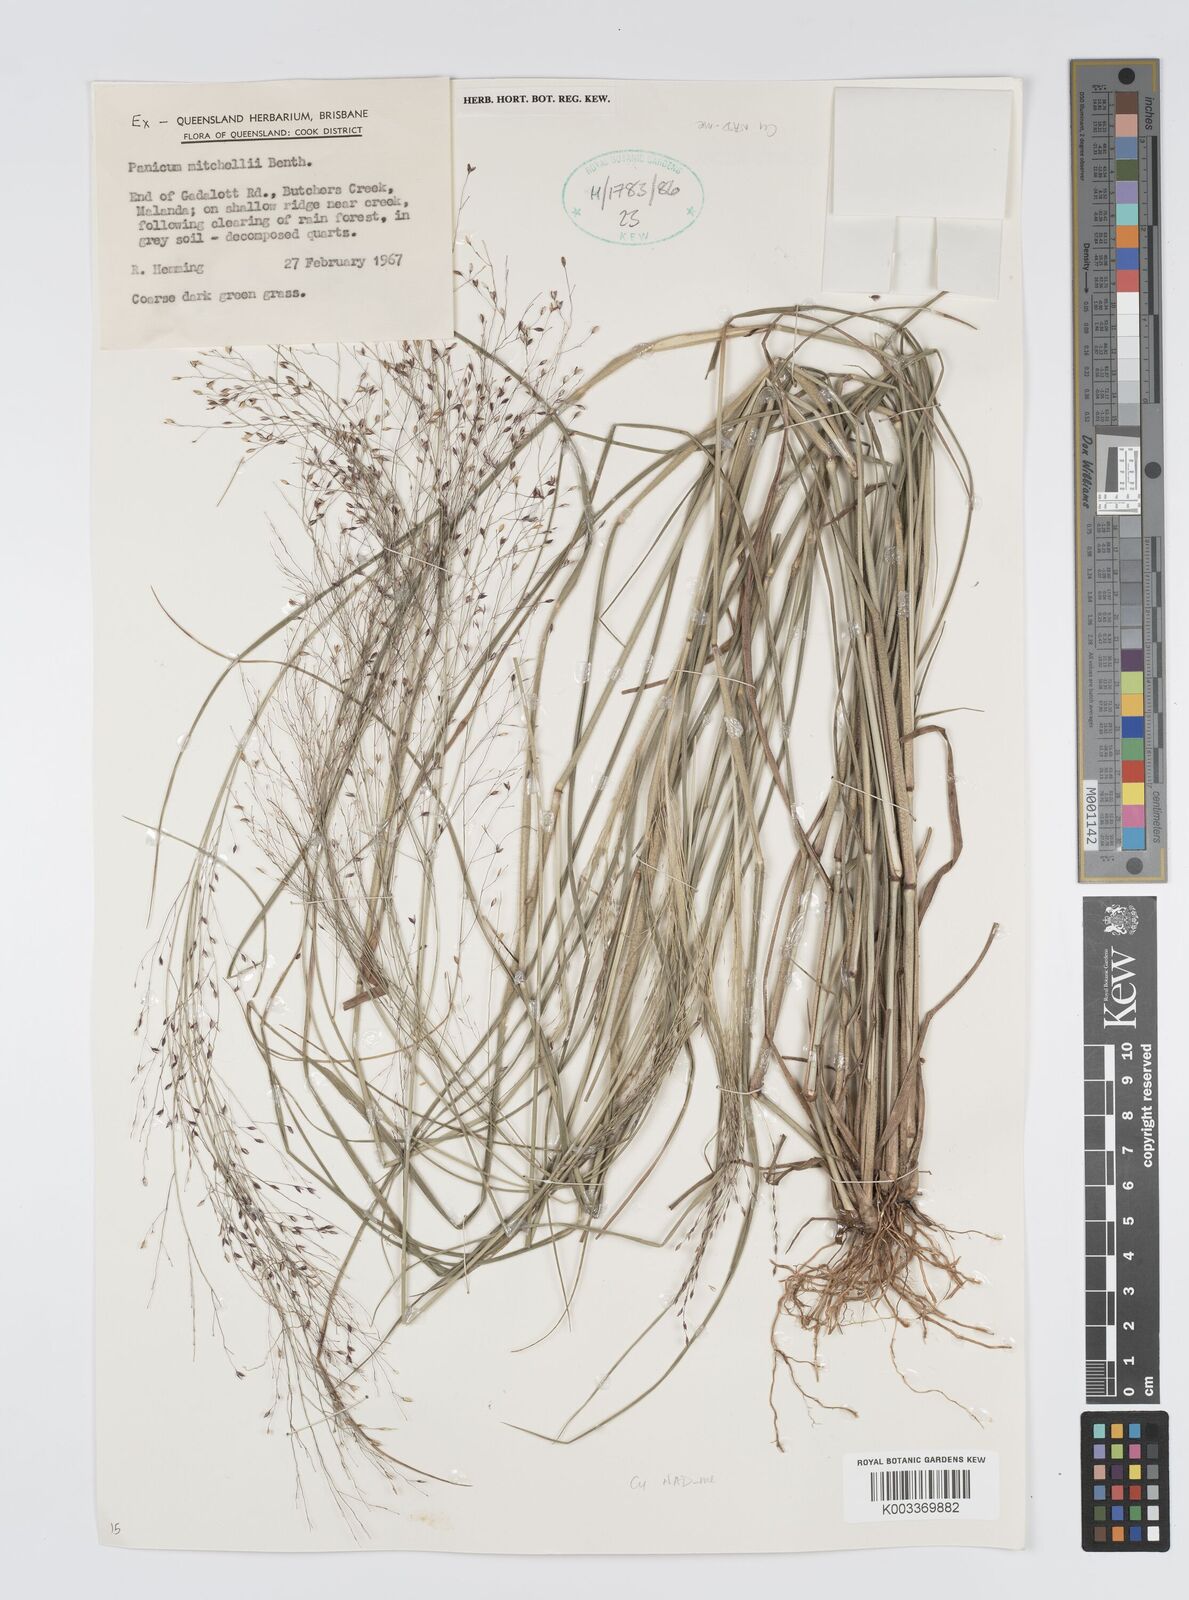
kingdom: Plantae
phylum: Tracheophyta
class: Liliopsida
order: Poales
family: Poaceae
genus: Panicum
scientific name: Panicum mitchellii
